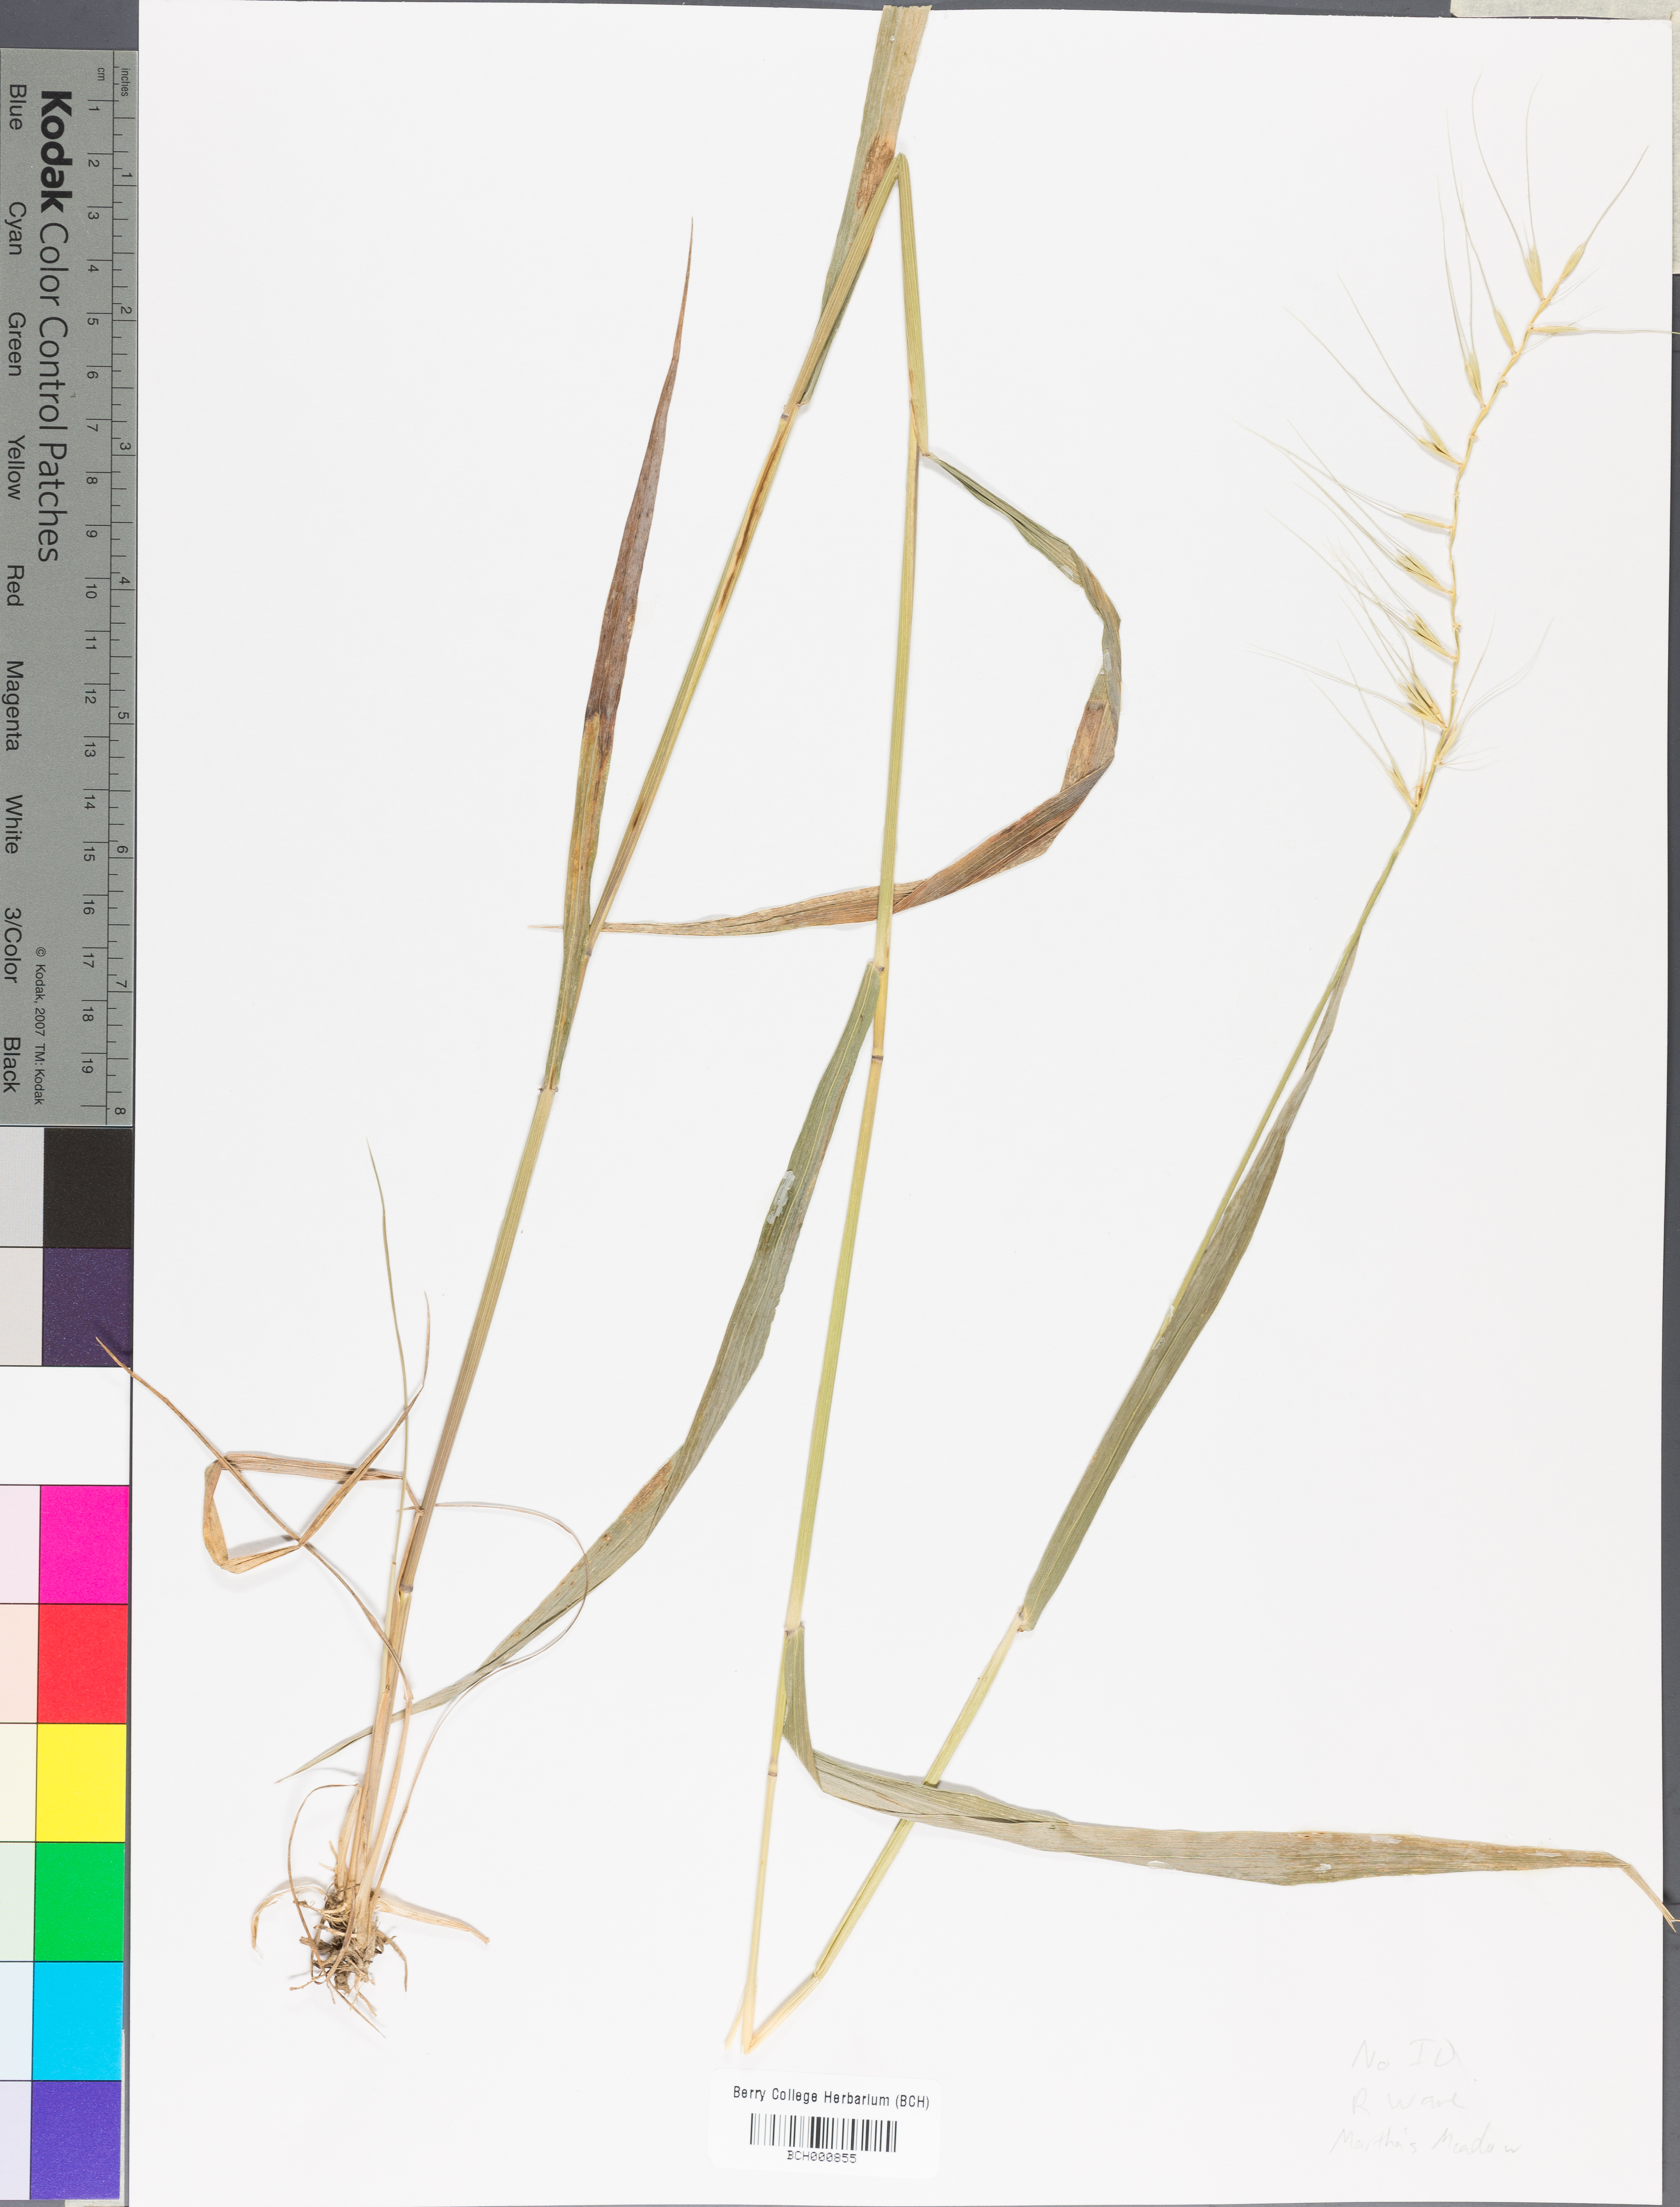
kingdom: Plantae
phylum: Tracheophyta
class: Magnoliopsida
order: Lamiales
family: Acanthaceae
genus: Adhatoda
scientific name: Adhatoda
